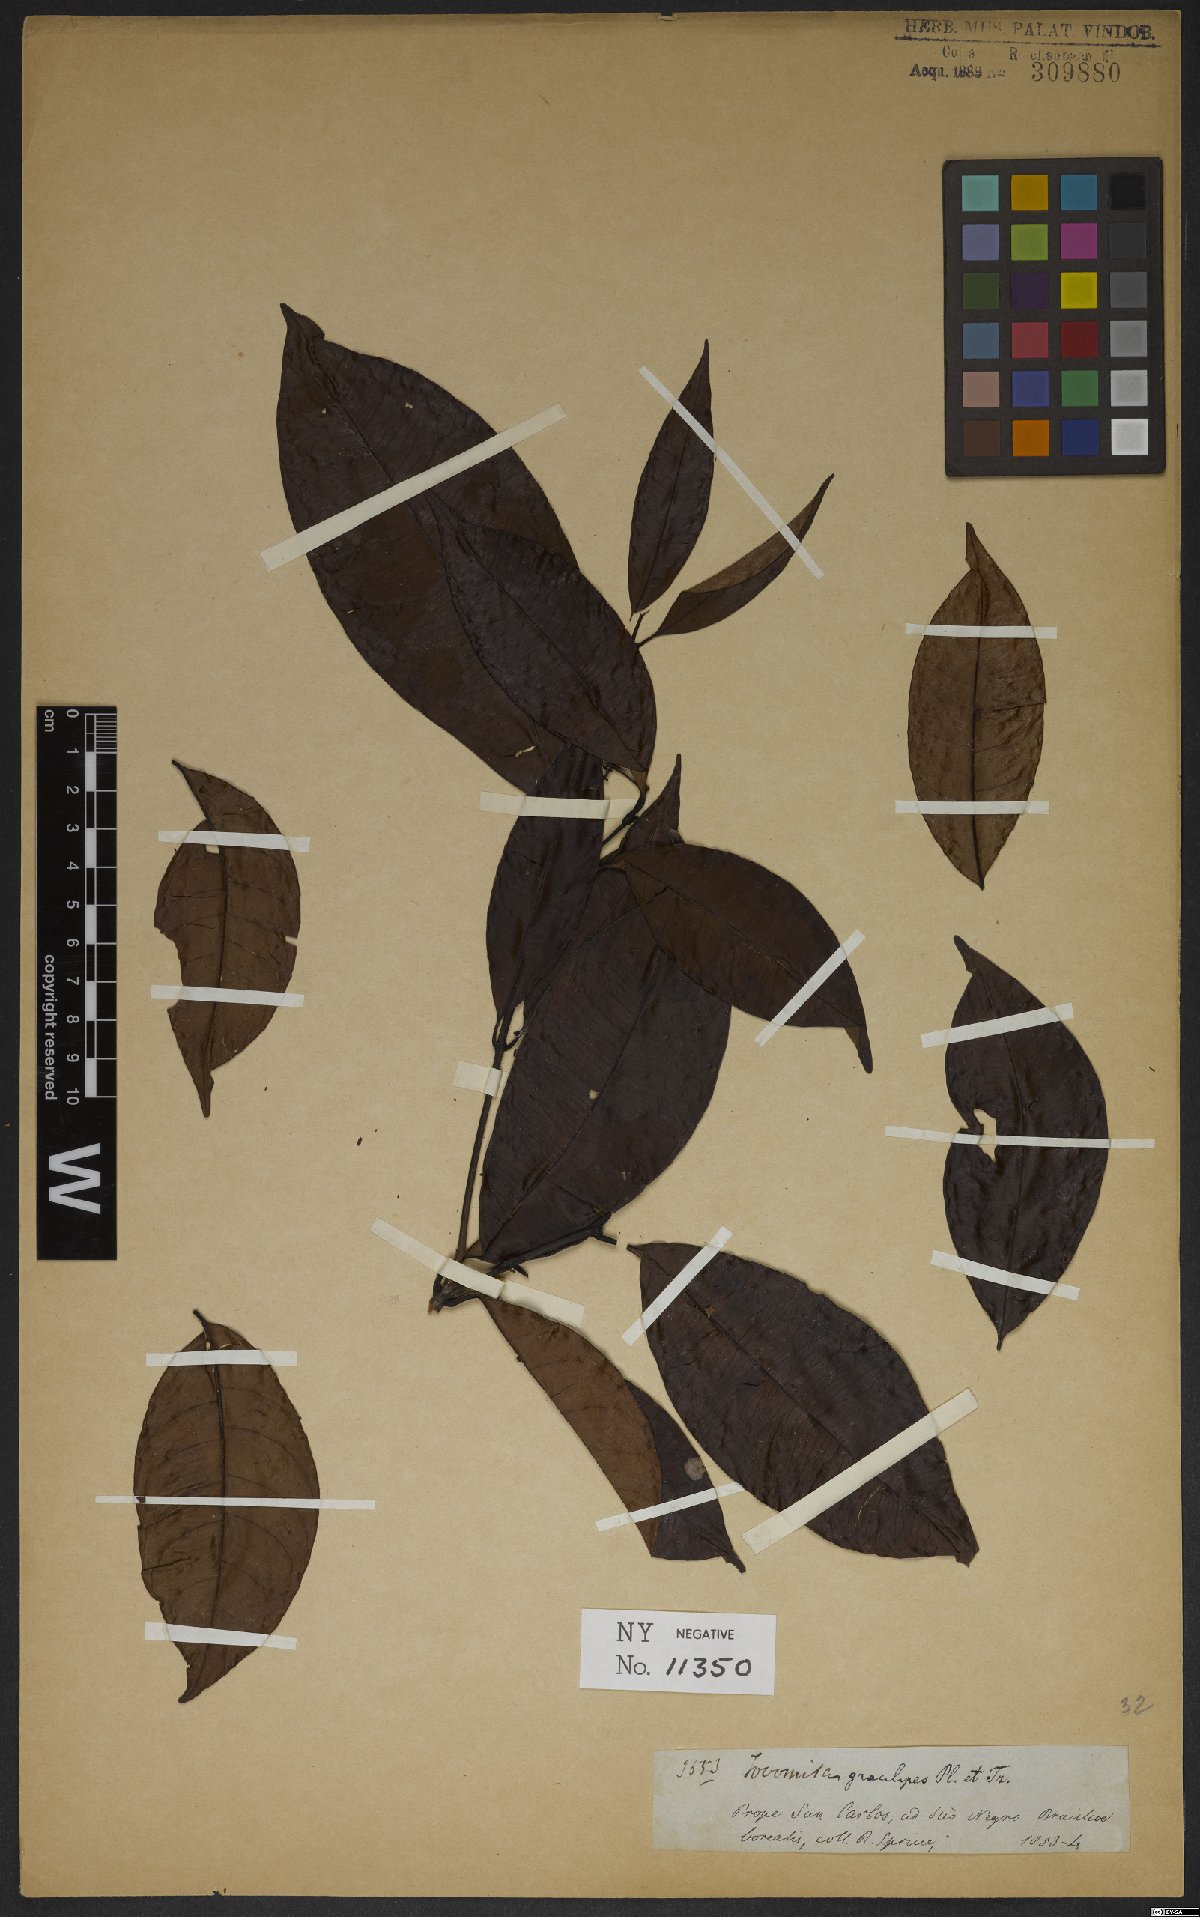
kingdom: Plantae
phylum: Tracheophyta
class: Magnoliopsida
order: Malpighiales
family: Clusiaceae
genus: Tovomita
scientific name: Tovomita gracilipes
